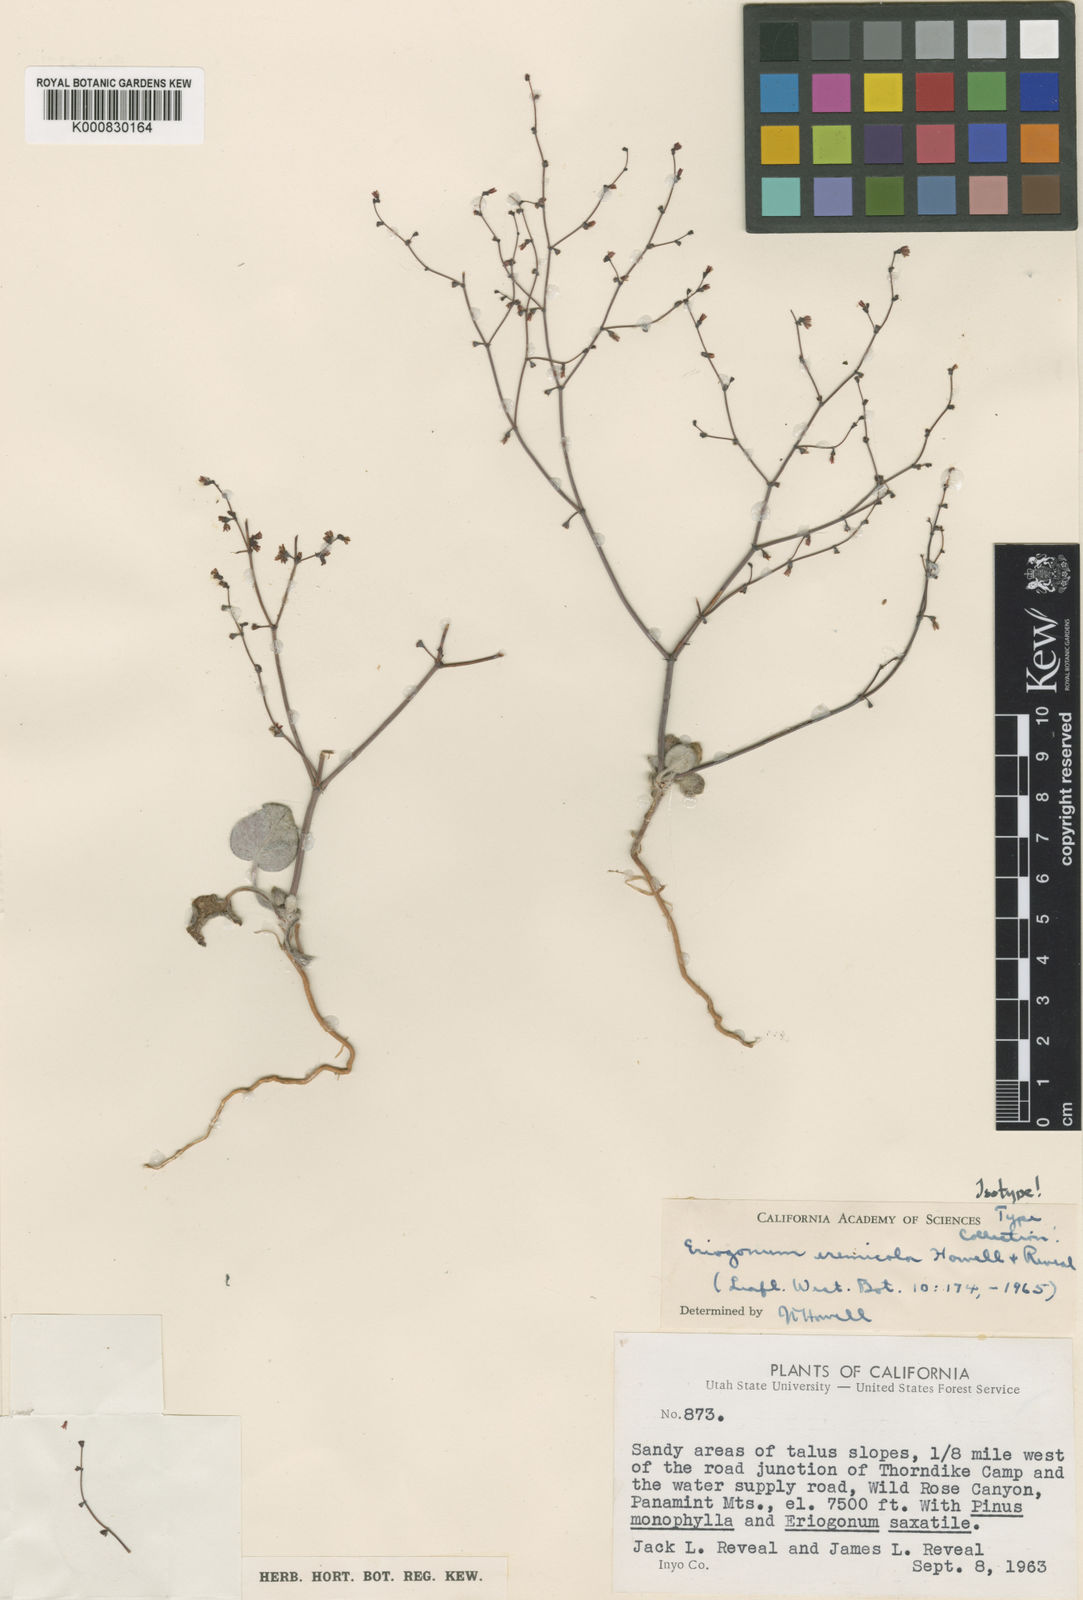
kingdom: Plantae
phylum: Tracheophyta
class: Magnoliopsida
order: Caryophyllales
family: Polygonaceae
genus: Eriogonum
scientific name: Eriogonum eremicola
